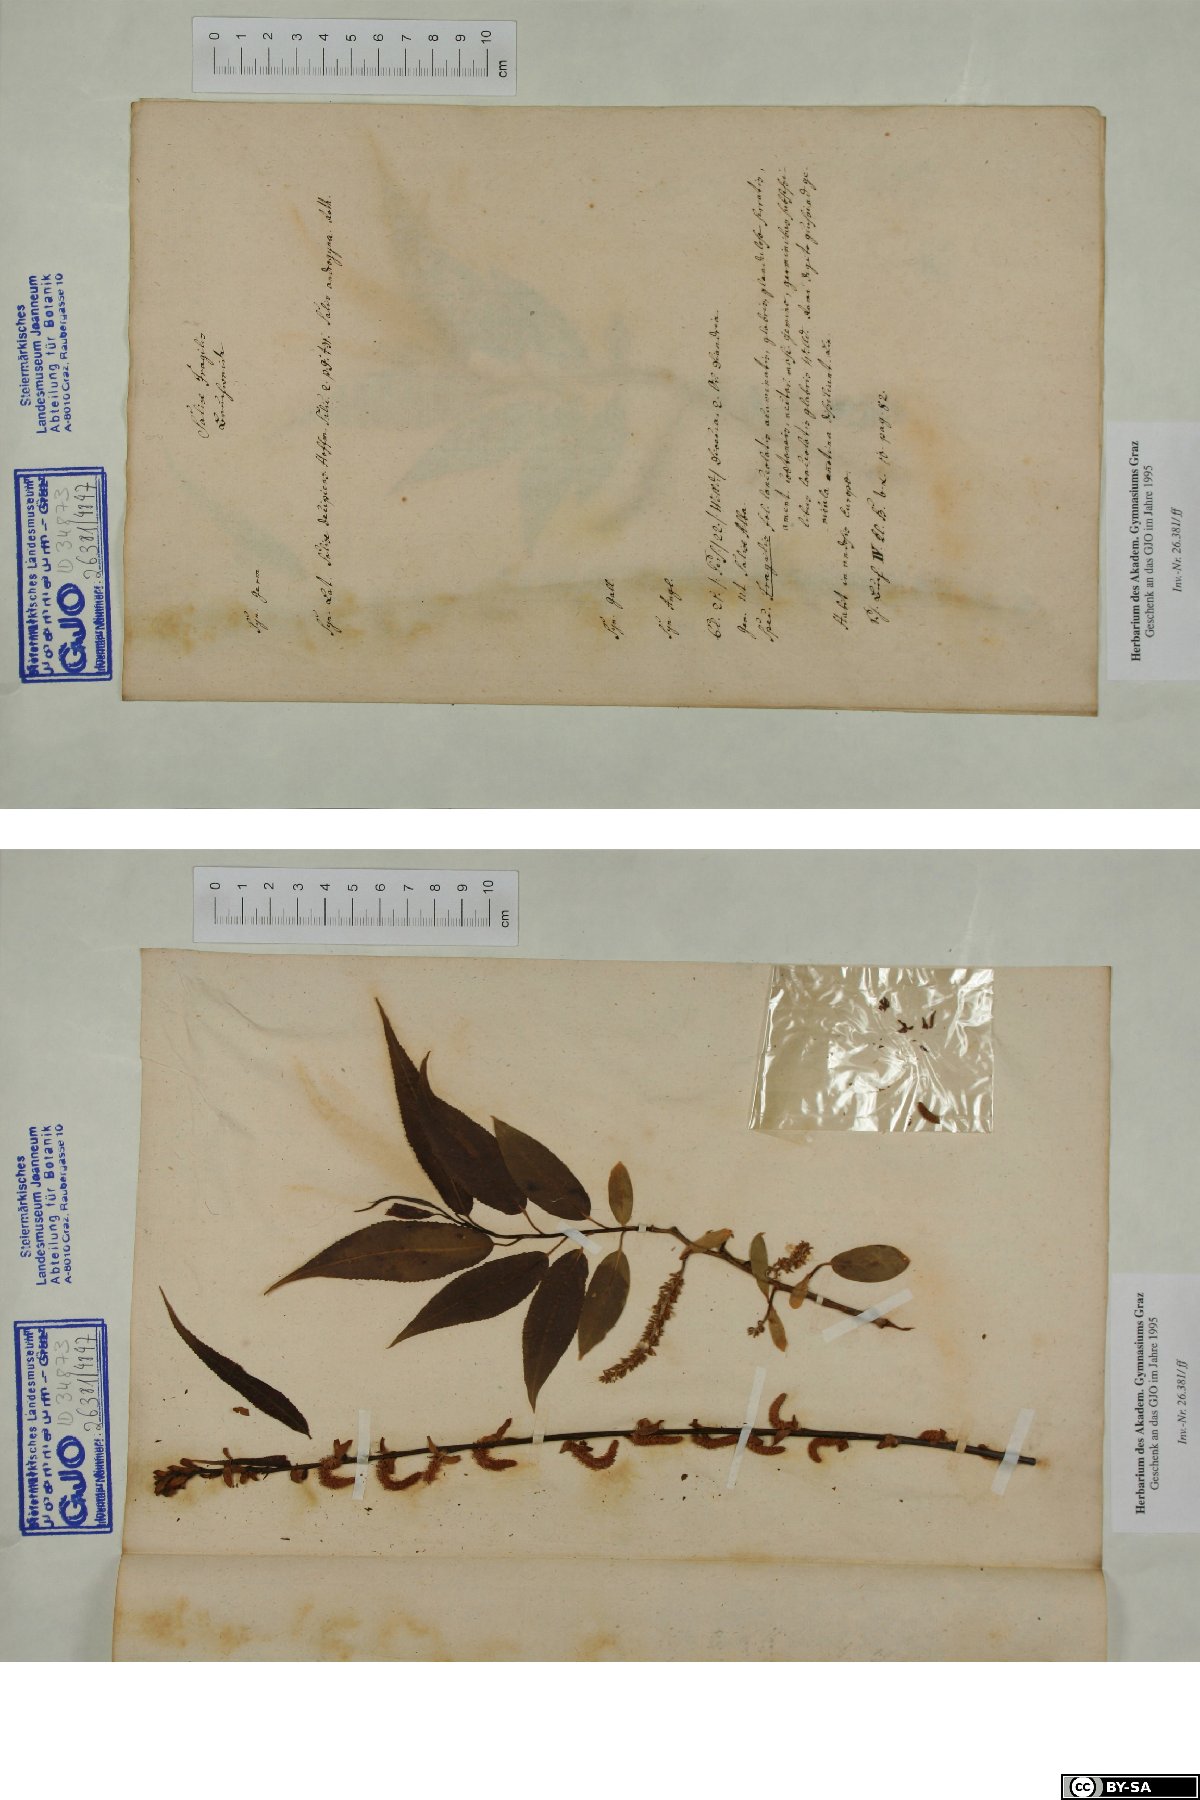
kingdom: Plantae
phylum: Tracheophyta
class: Magnoliopsida
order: Malpighiales
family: Salicaceae
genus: Salix
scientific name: Salix fragilis
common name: Crack willow
